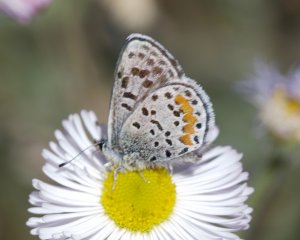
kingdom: Animalia
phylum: Arthropoda
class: Insecta
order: Lepidoptera
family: Lycaenidae
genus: Philotes
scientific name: Philotes bernardino
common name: Bernardino Blue
